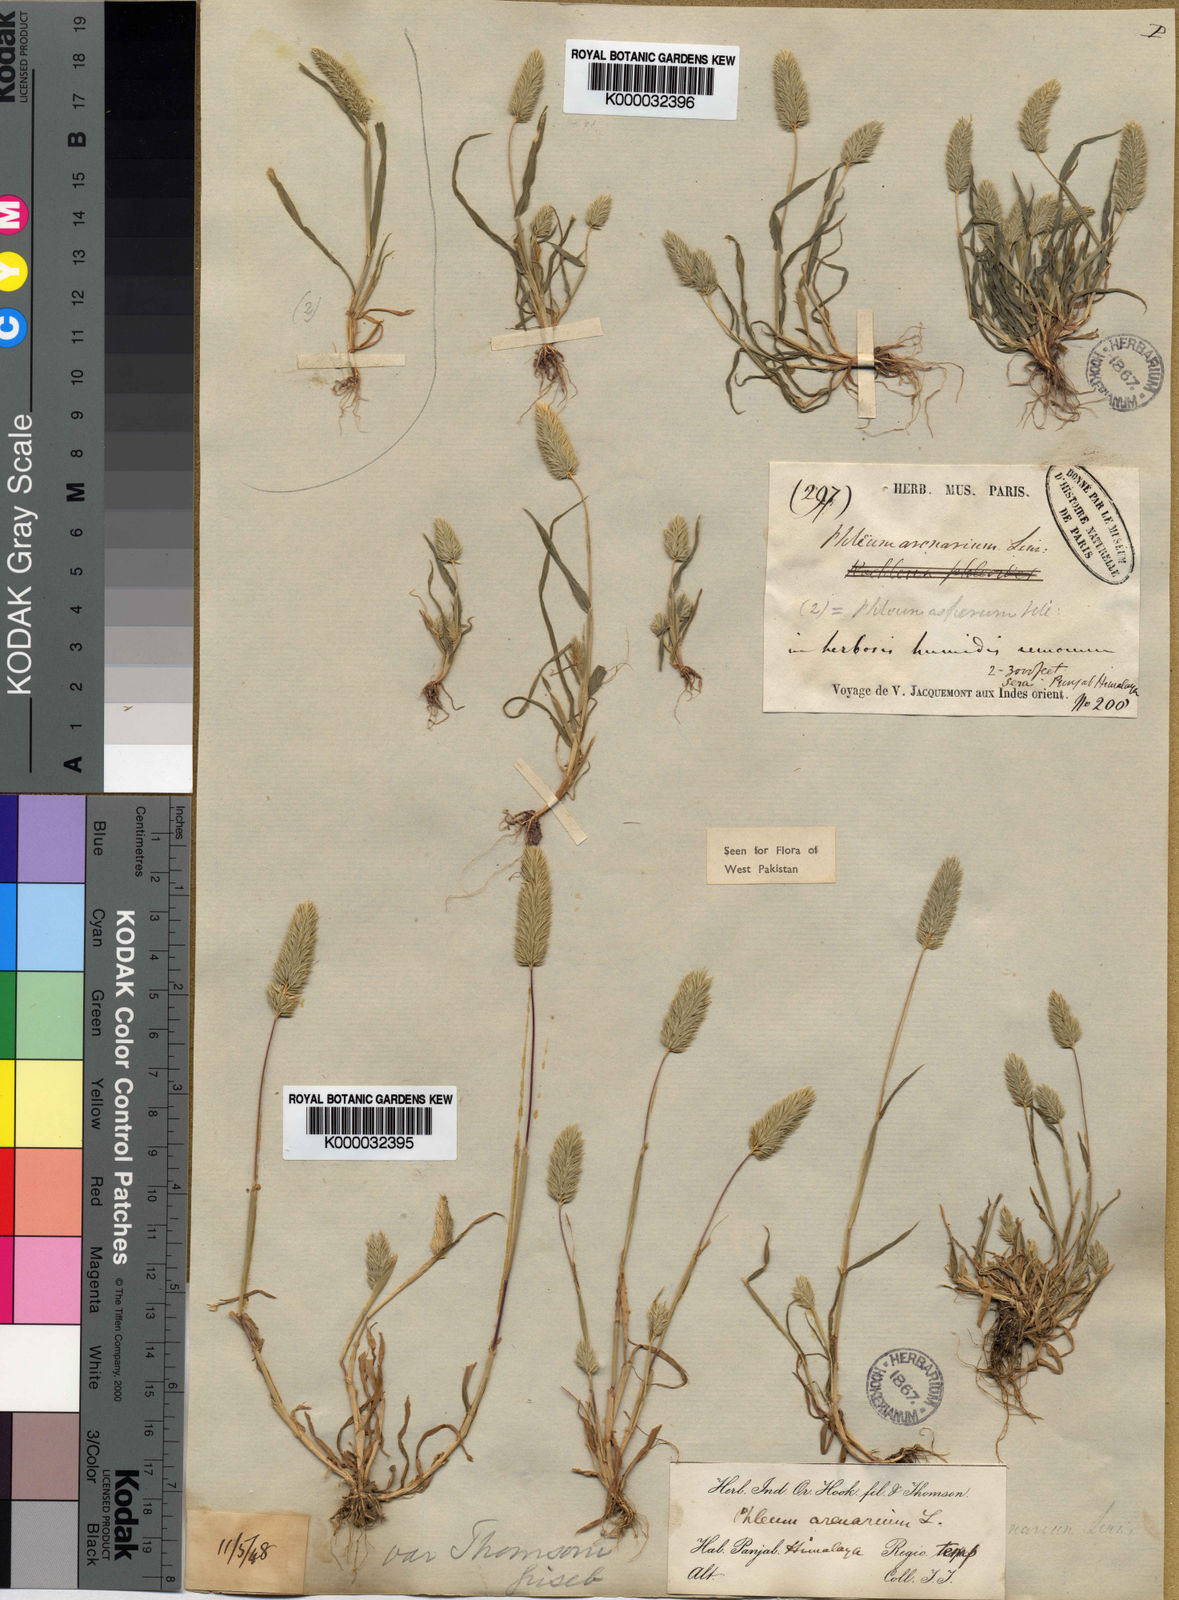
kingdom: Plantae
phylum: Tracheophyta
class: Liliopsida
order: Poales
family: Poaceae
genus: Phleum
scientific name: Phleum himalaicum
